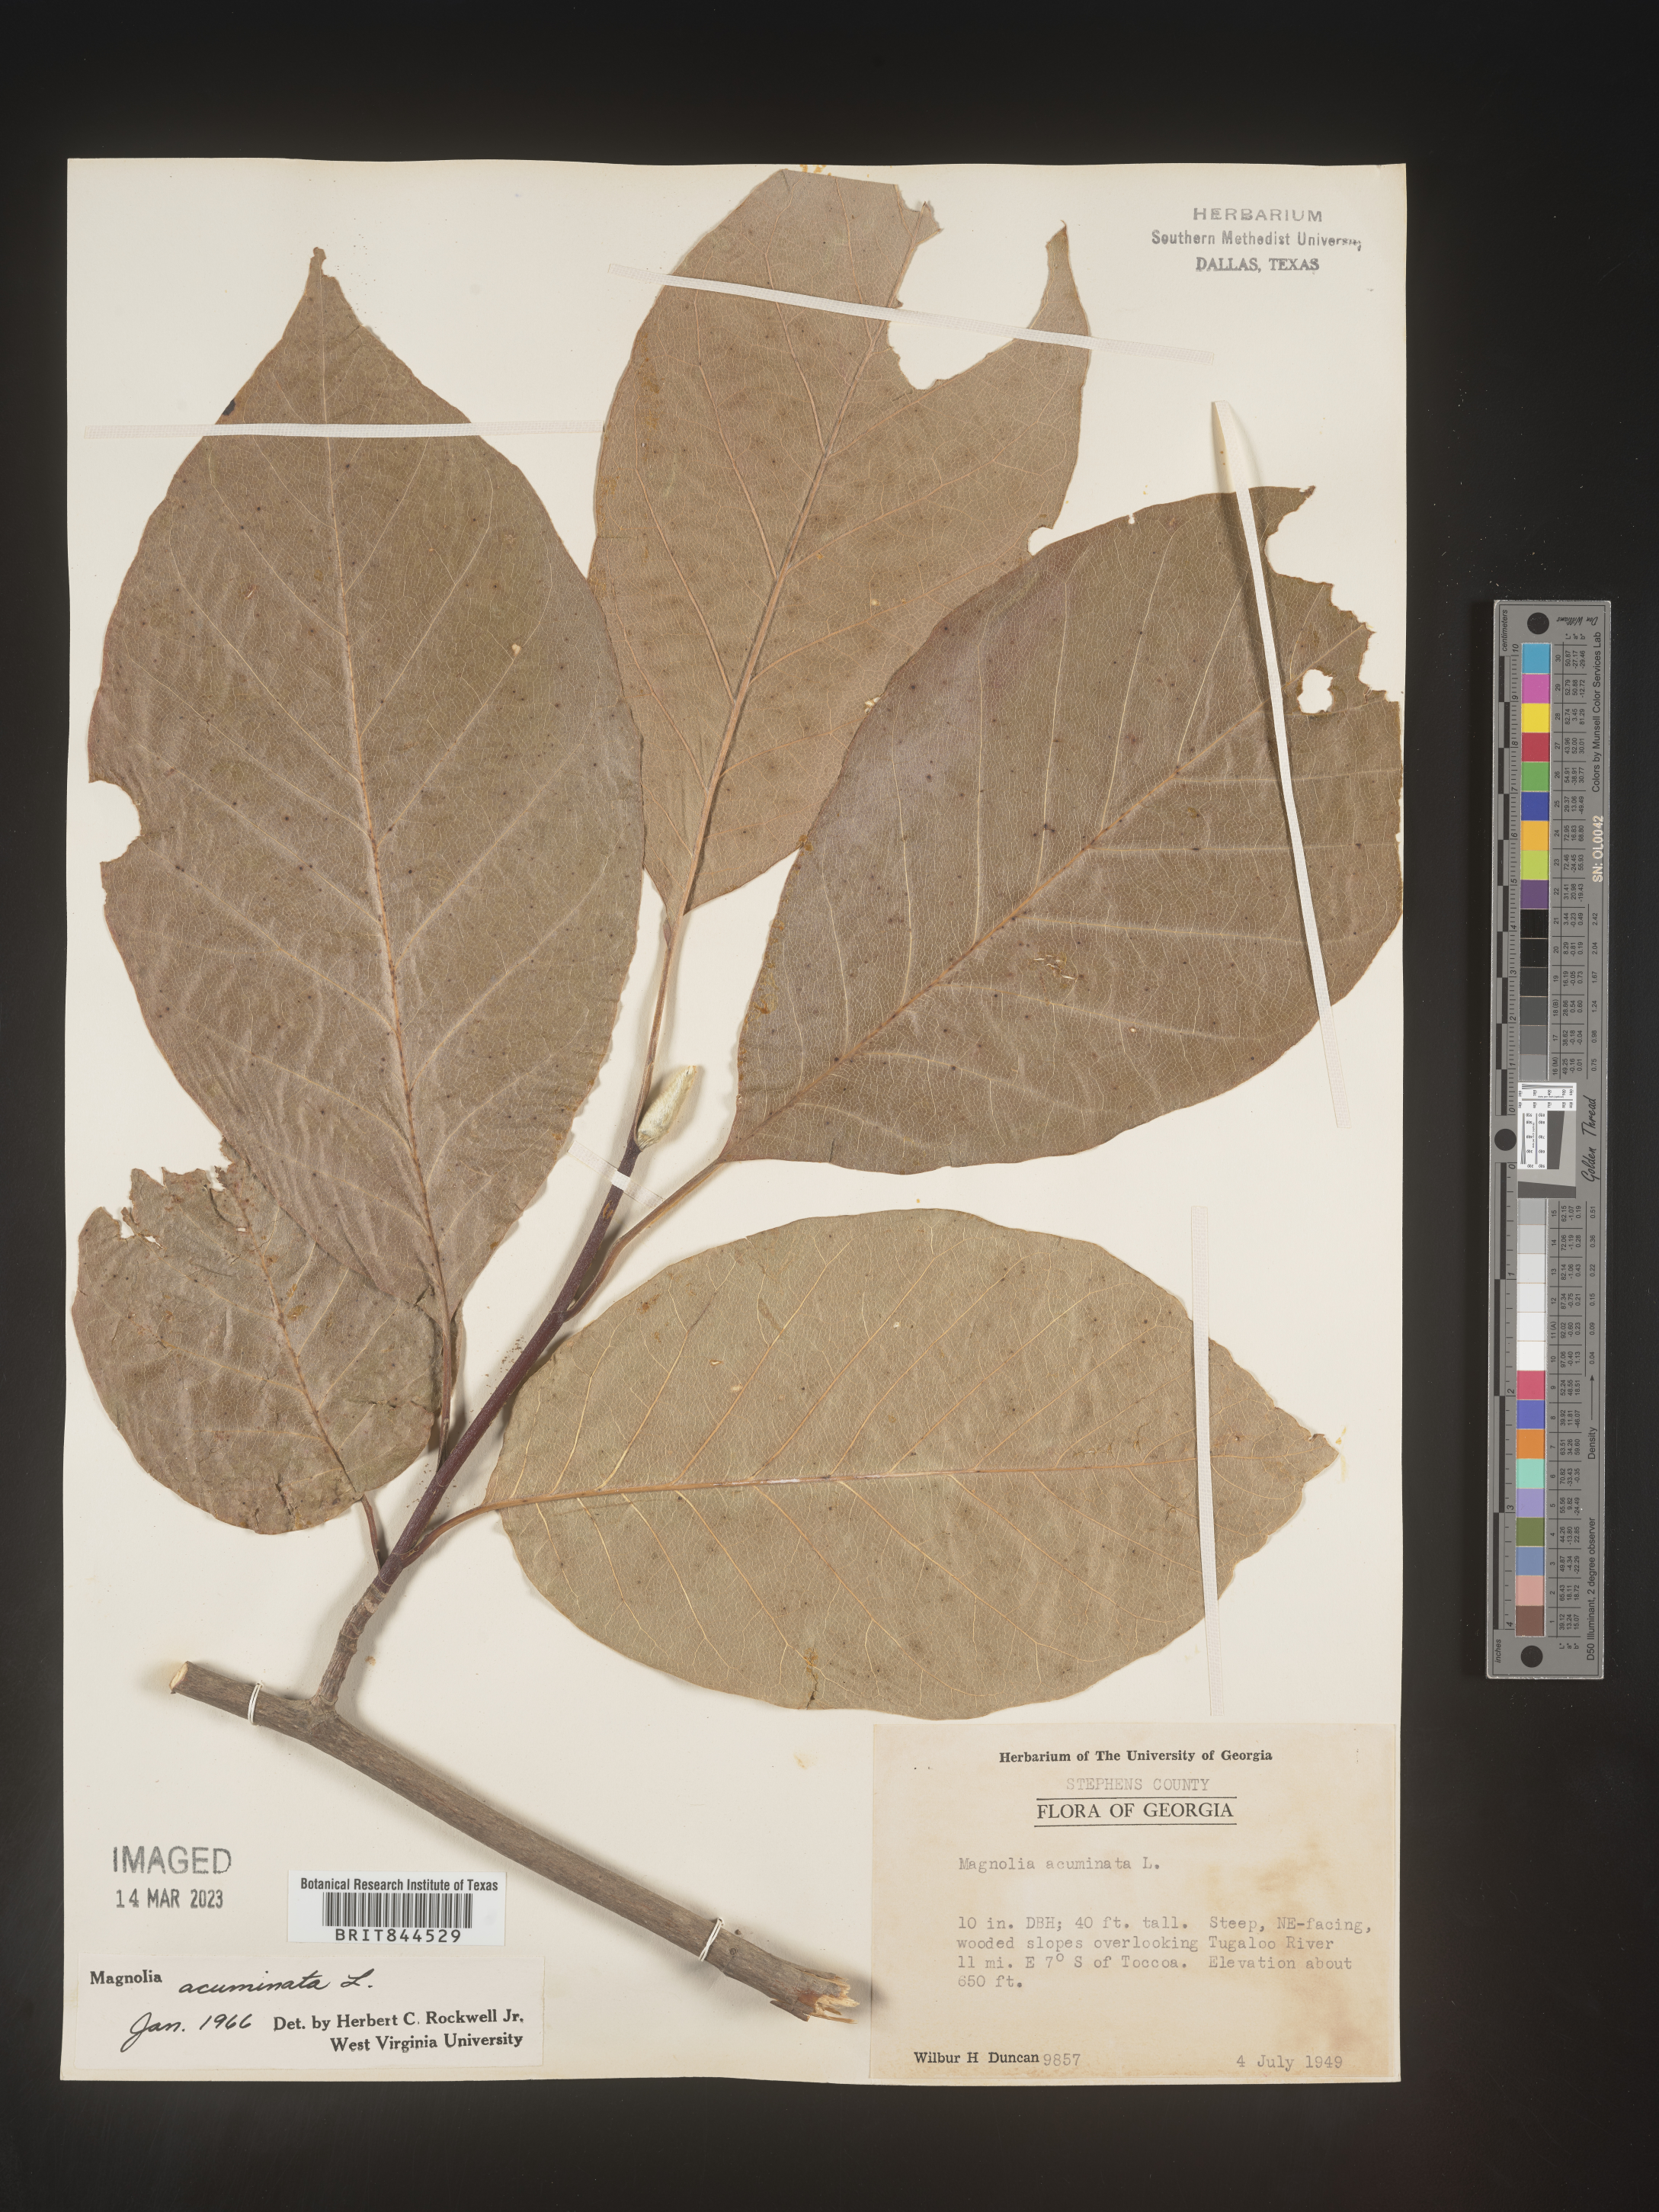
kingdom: Plantae
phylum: Tracheophyta
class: Magnoliopsida
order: Magnoliales
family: Magnoliaceae
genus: Magnolia
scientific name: Magnolia acuminata
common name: Cucumber magnolia
